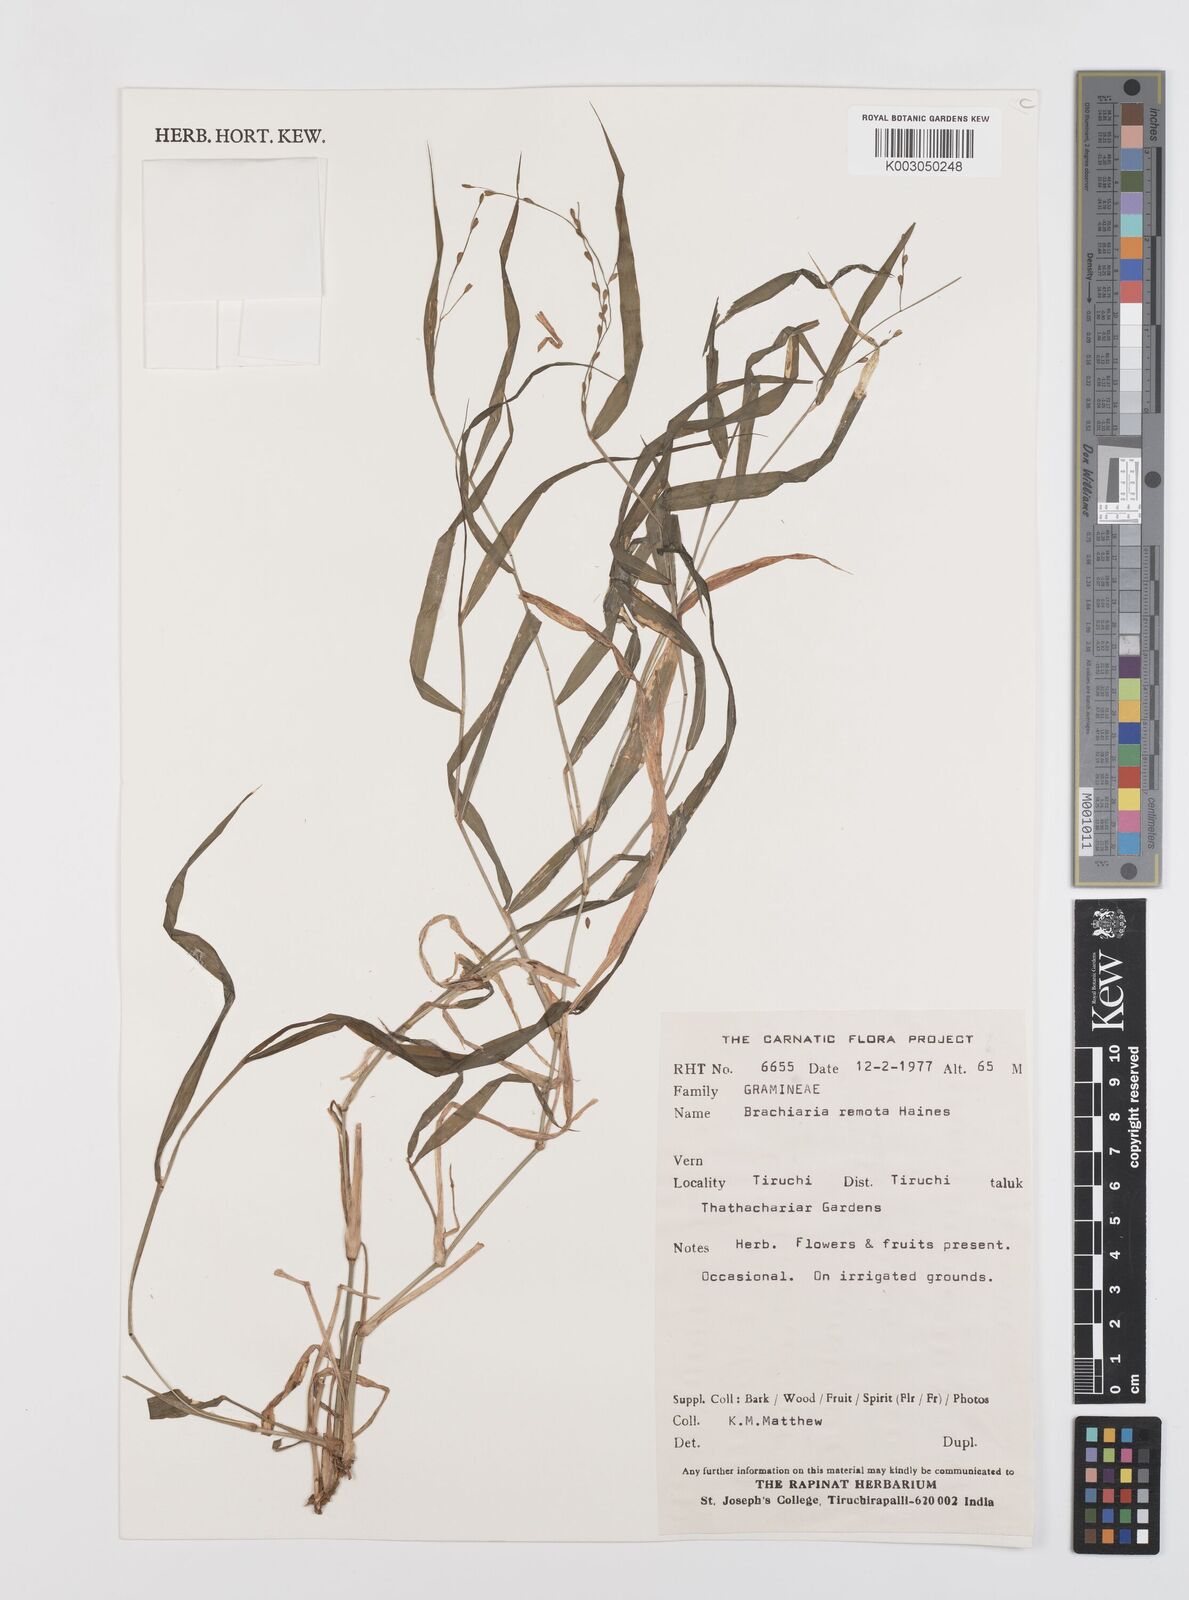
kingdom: Plantae
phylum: Tracheophyta
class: Liliopsida
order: Poales
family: Poaceae
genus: Urochloa
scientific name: Urochloa ramosa
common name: Browntop millet
